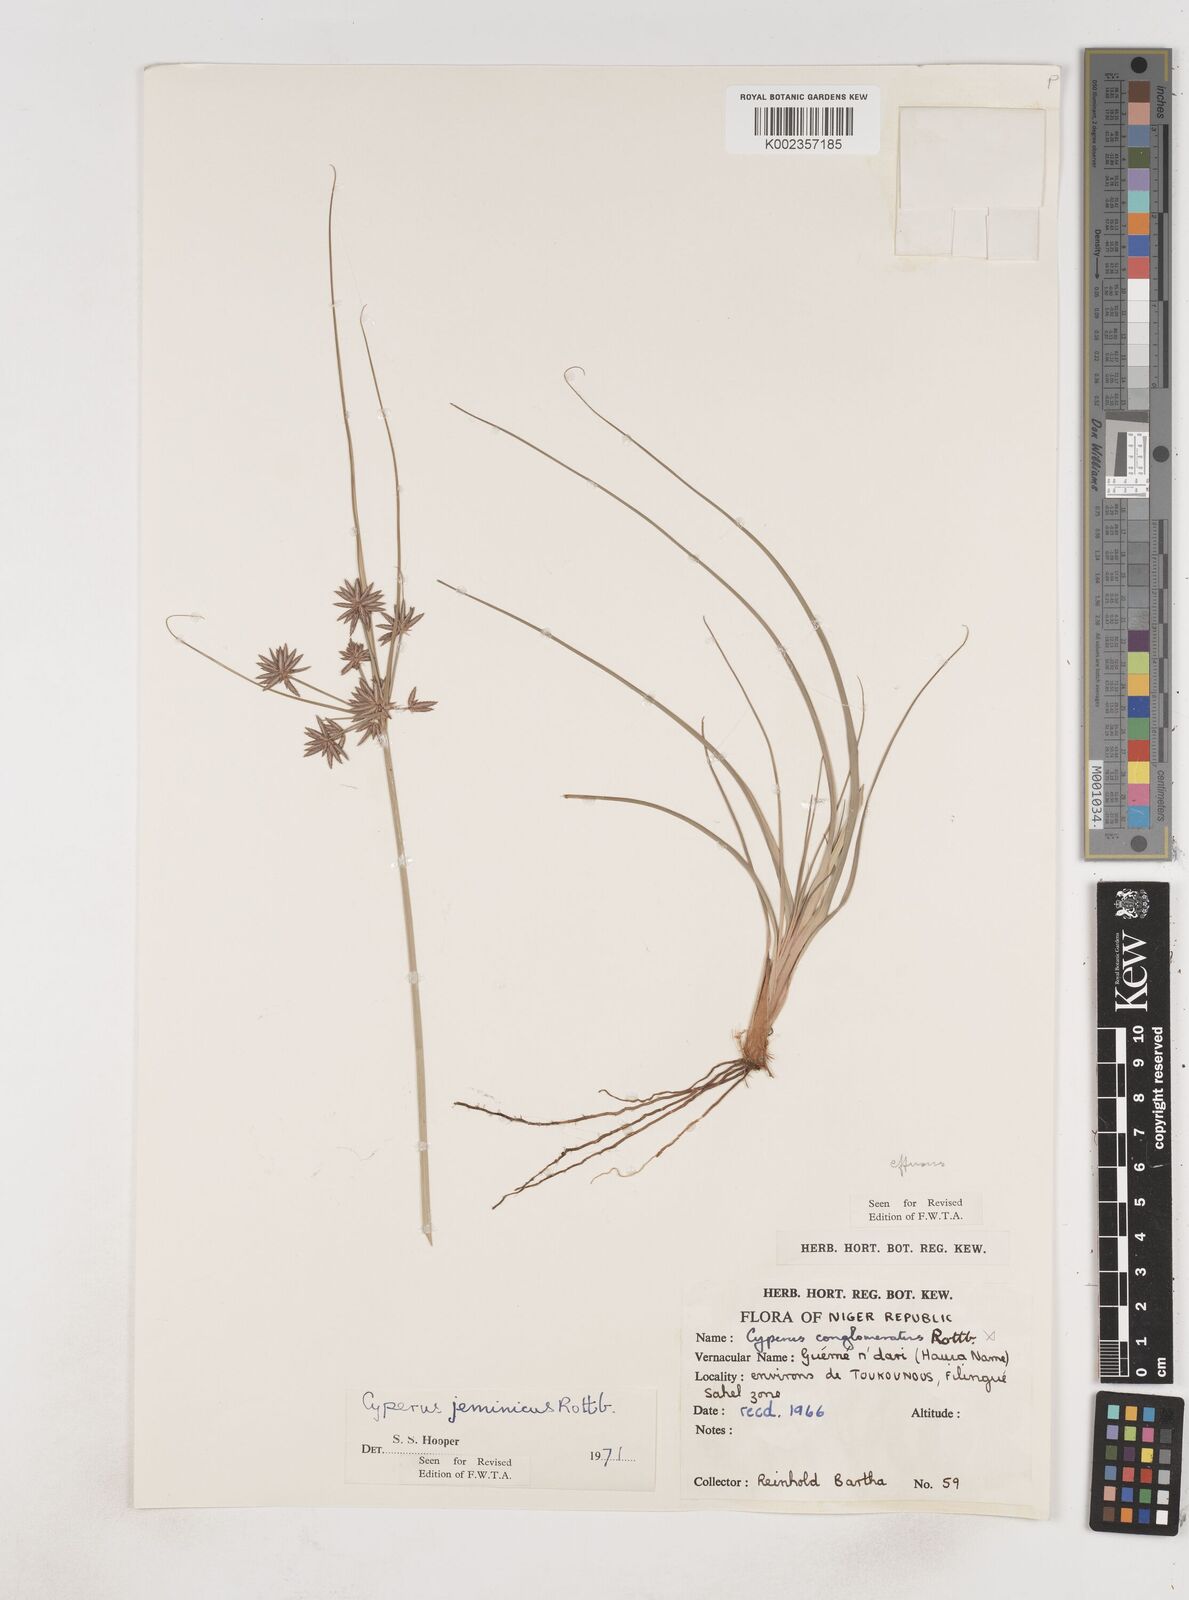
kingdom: Plantae
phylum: Tracheophyta
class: Liliopsida
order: Poales
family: Cyperaceae
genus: Cyperus
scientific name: Cyperus conglomeratus
